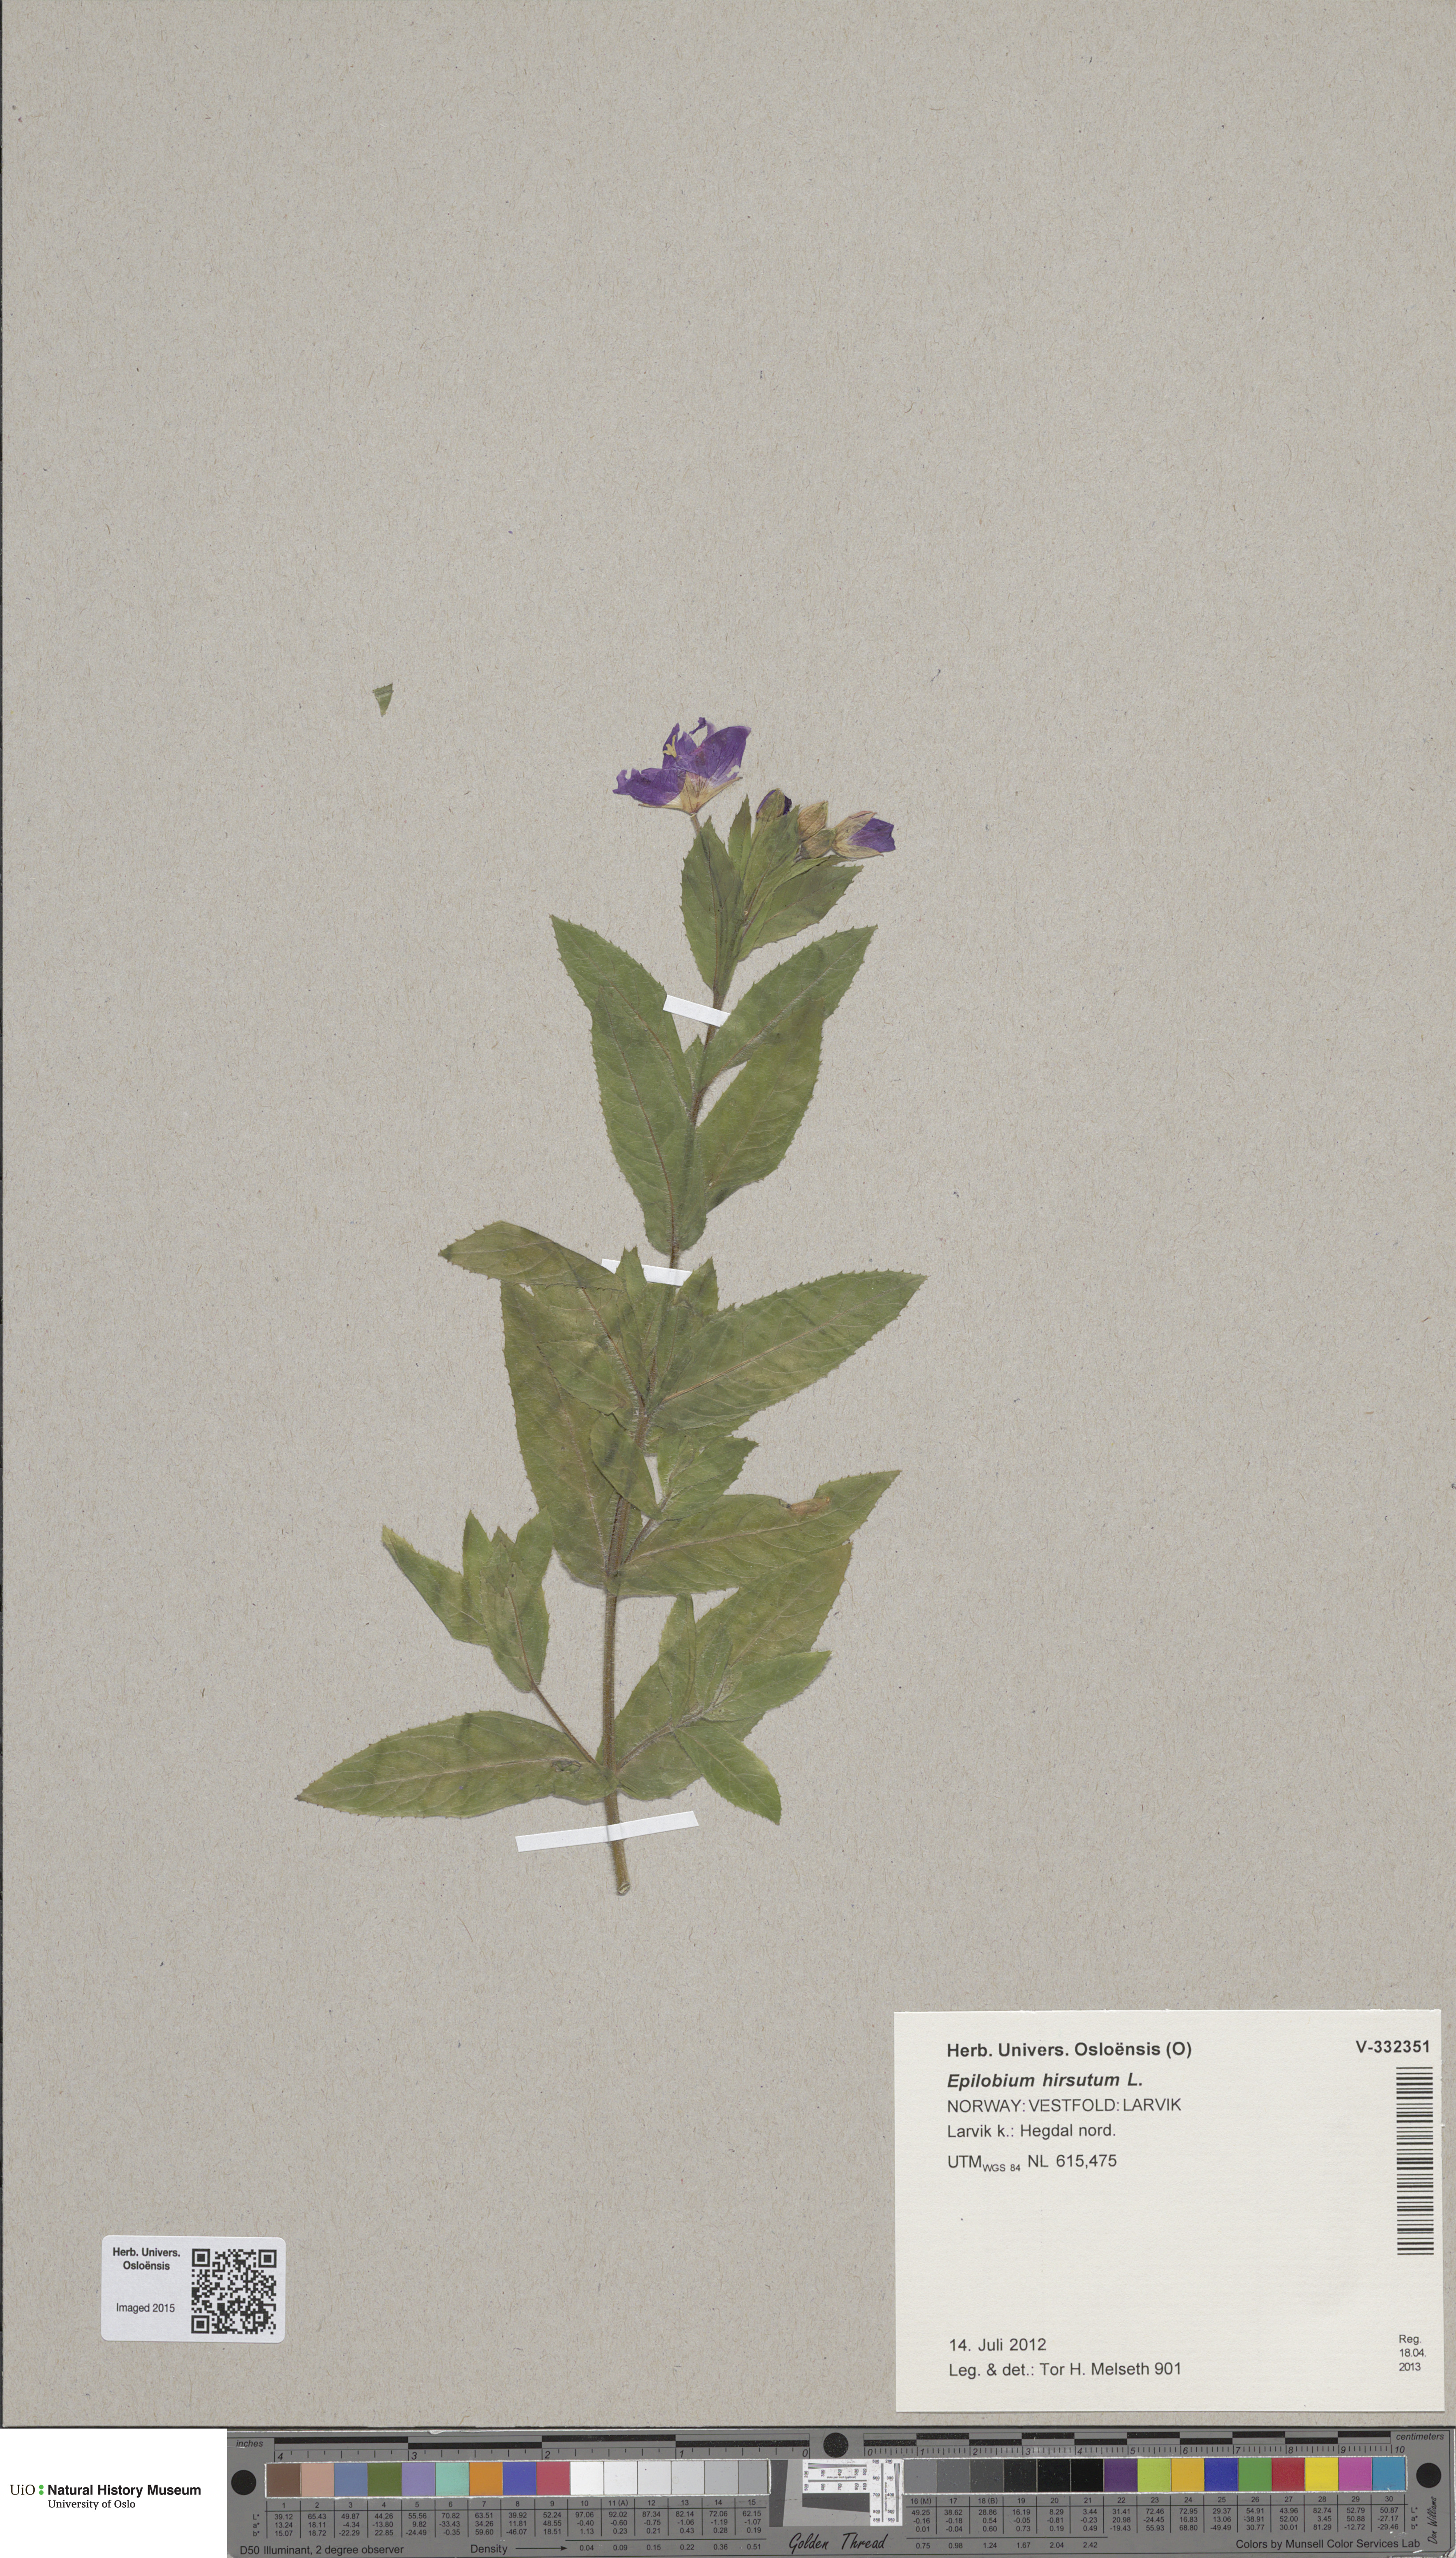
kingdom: Plantae
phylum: Tracheophyta
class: Magnoliopsida
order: Myrtales
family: Onagraceae
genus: Epilobium
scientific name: Epilobium hirsutum
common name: Great willowherb
